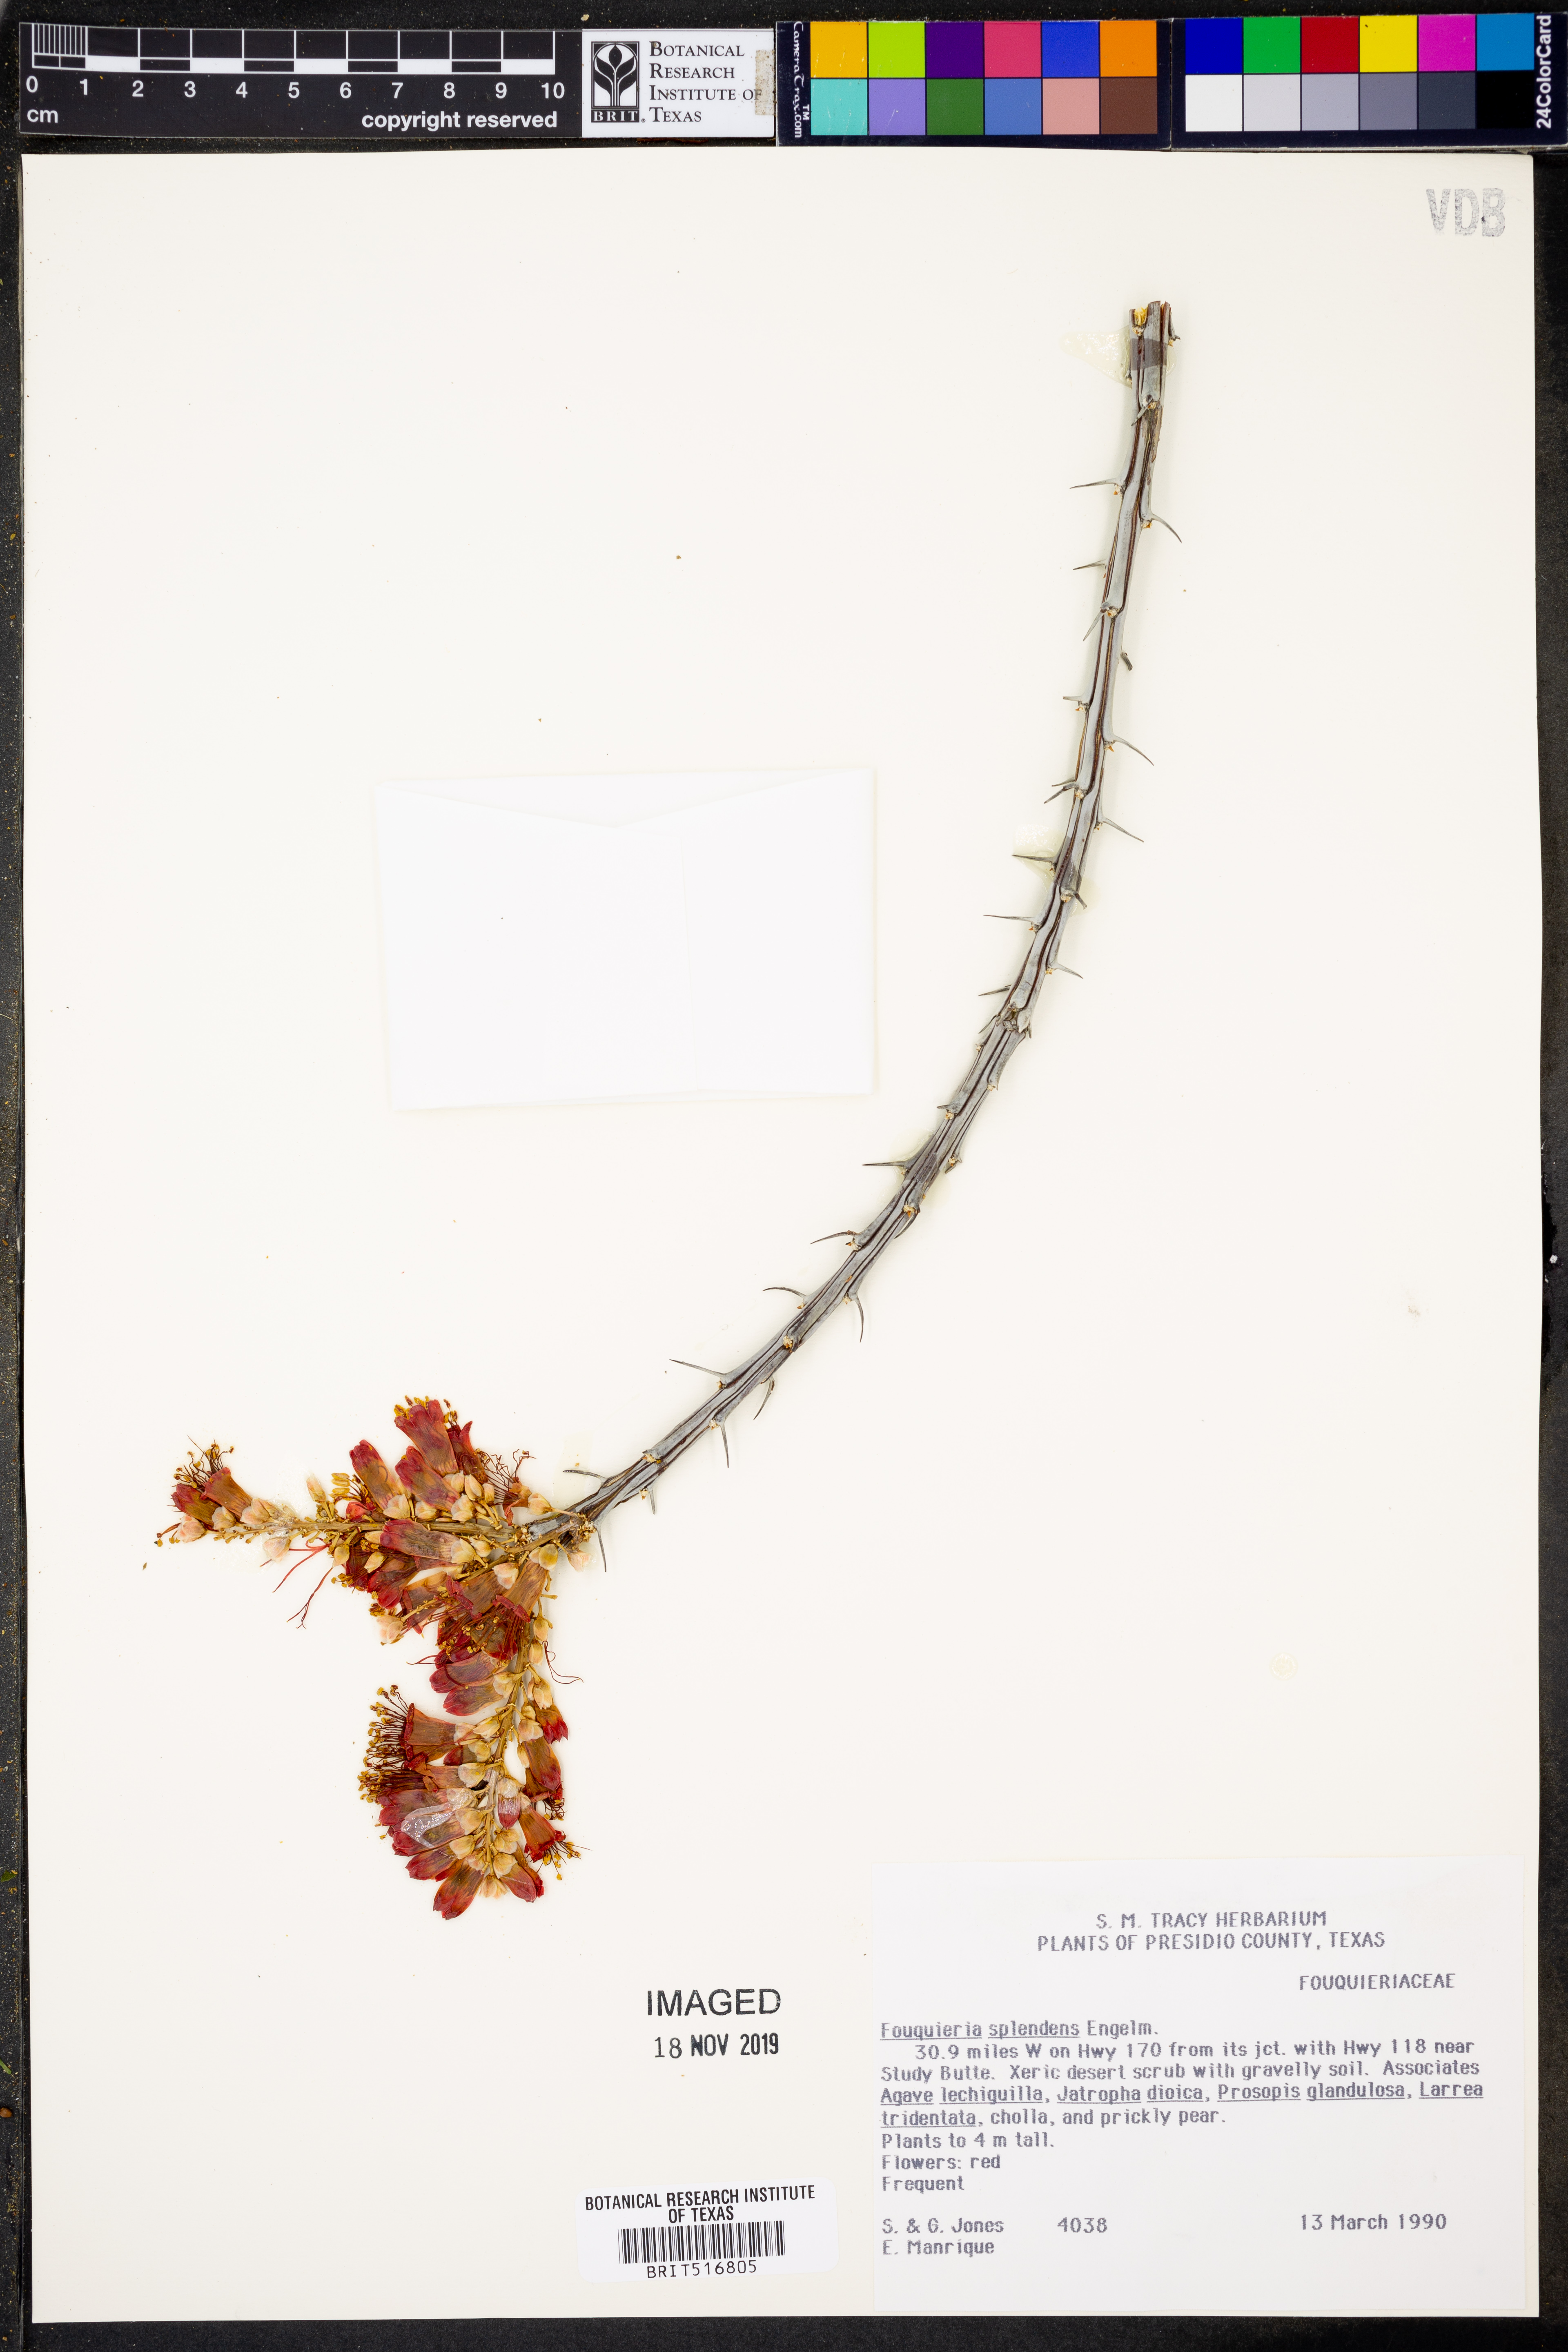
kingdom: Plantae
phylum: Tracheophyta
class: Magnoliopsida
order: Ericales
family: Fouquieriaceae
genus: Fouquieria
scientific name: Fouquieria splendens
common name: Vine-cactus
